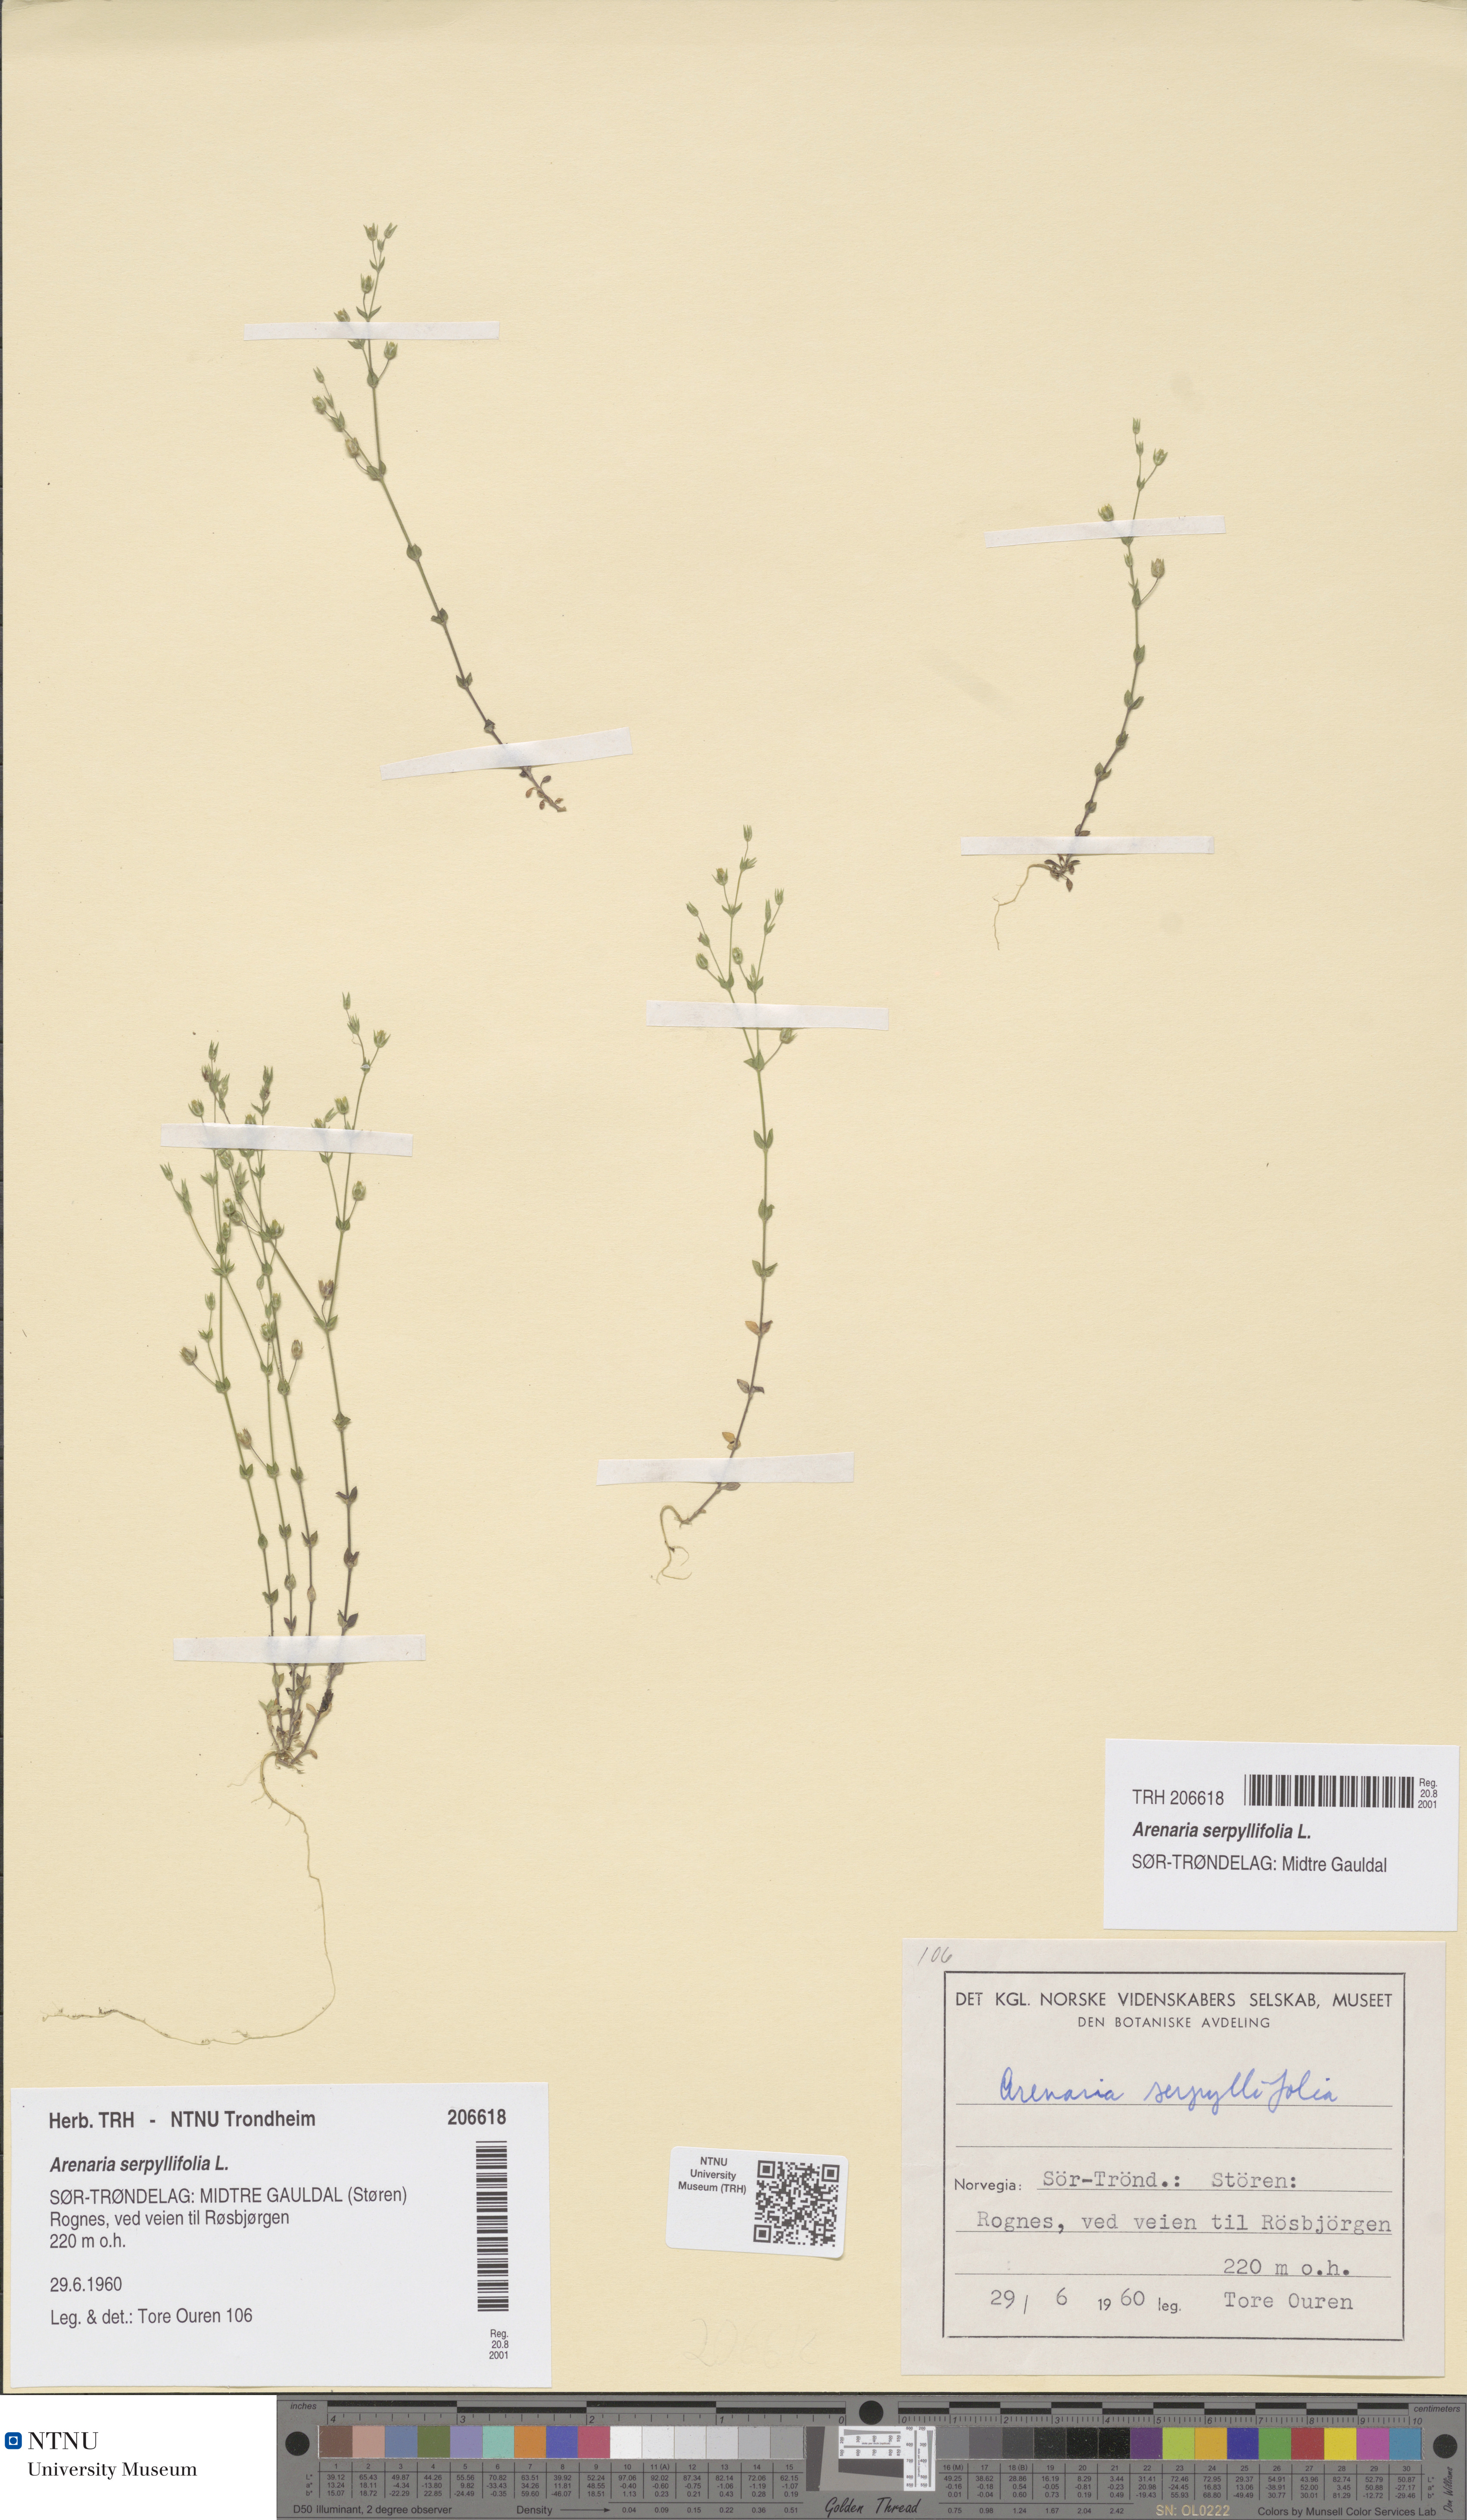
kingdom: Plantae
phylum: Tracheophyta
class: Magnoliopsida
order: Caryophyllales
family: Caryophyllaceae
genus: Arenaria
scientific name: Arenaria serpyllifolia
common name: Thyme-leaved sandwort
